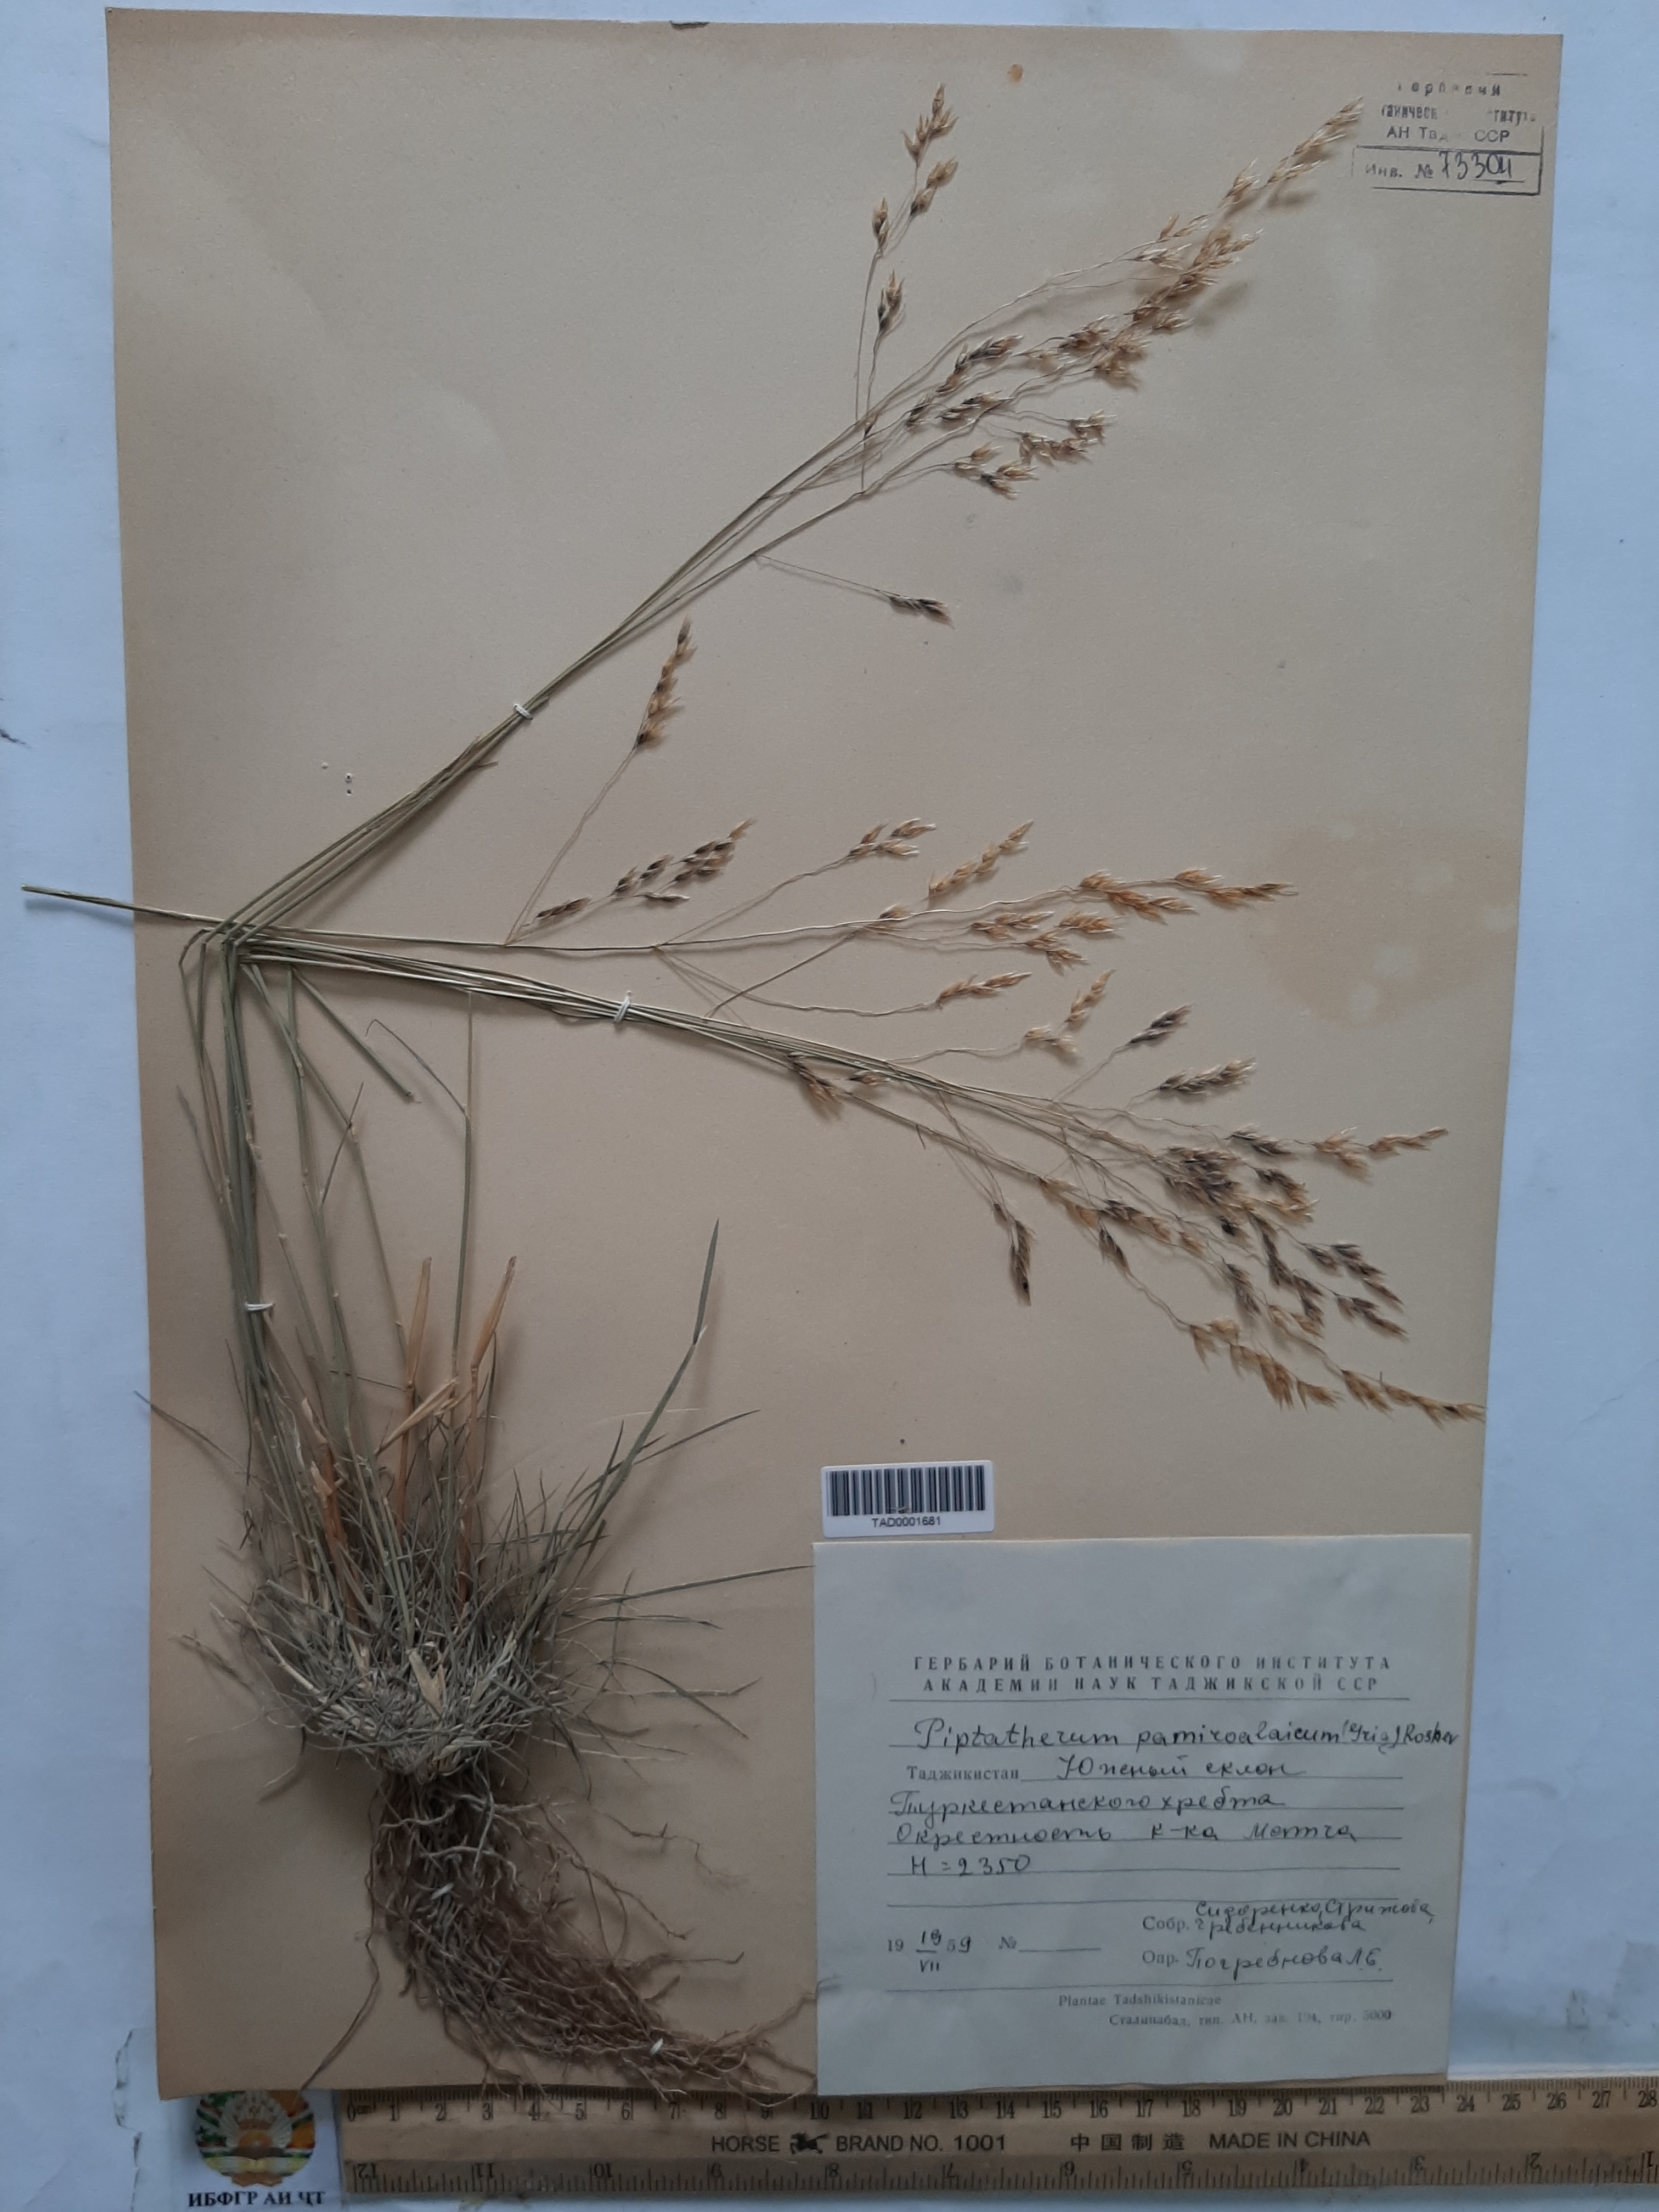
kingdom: Plantae
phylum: Tracheophyta
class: Liliopsida
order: Poales
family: Poaceae
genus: Piptatherum
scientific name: Piptatherum pamiralaicum
